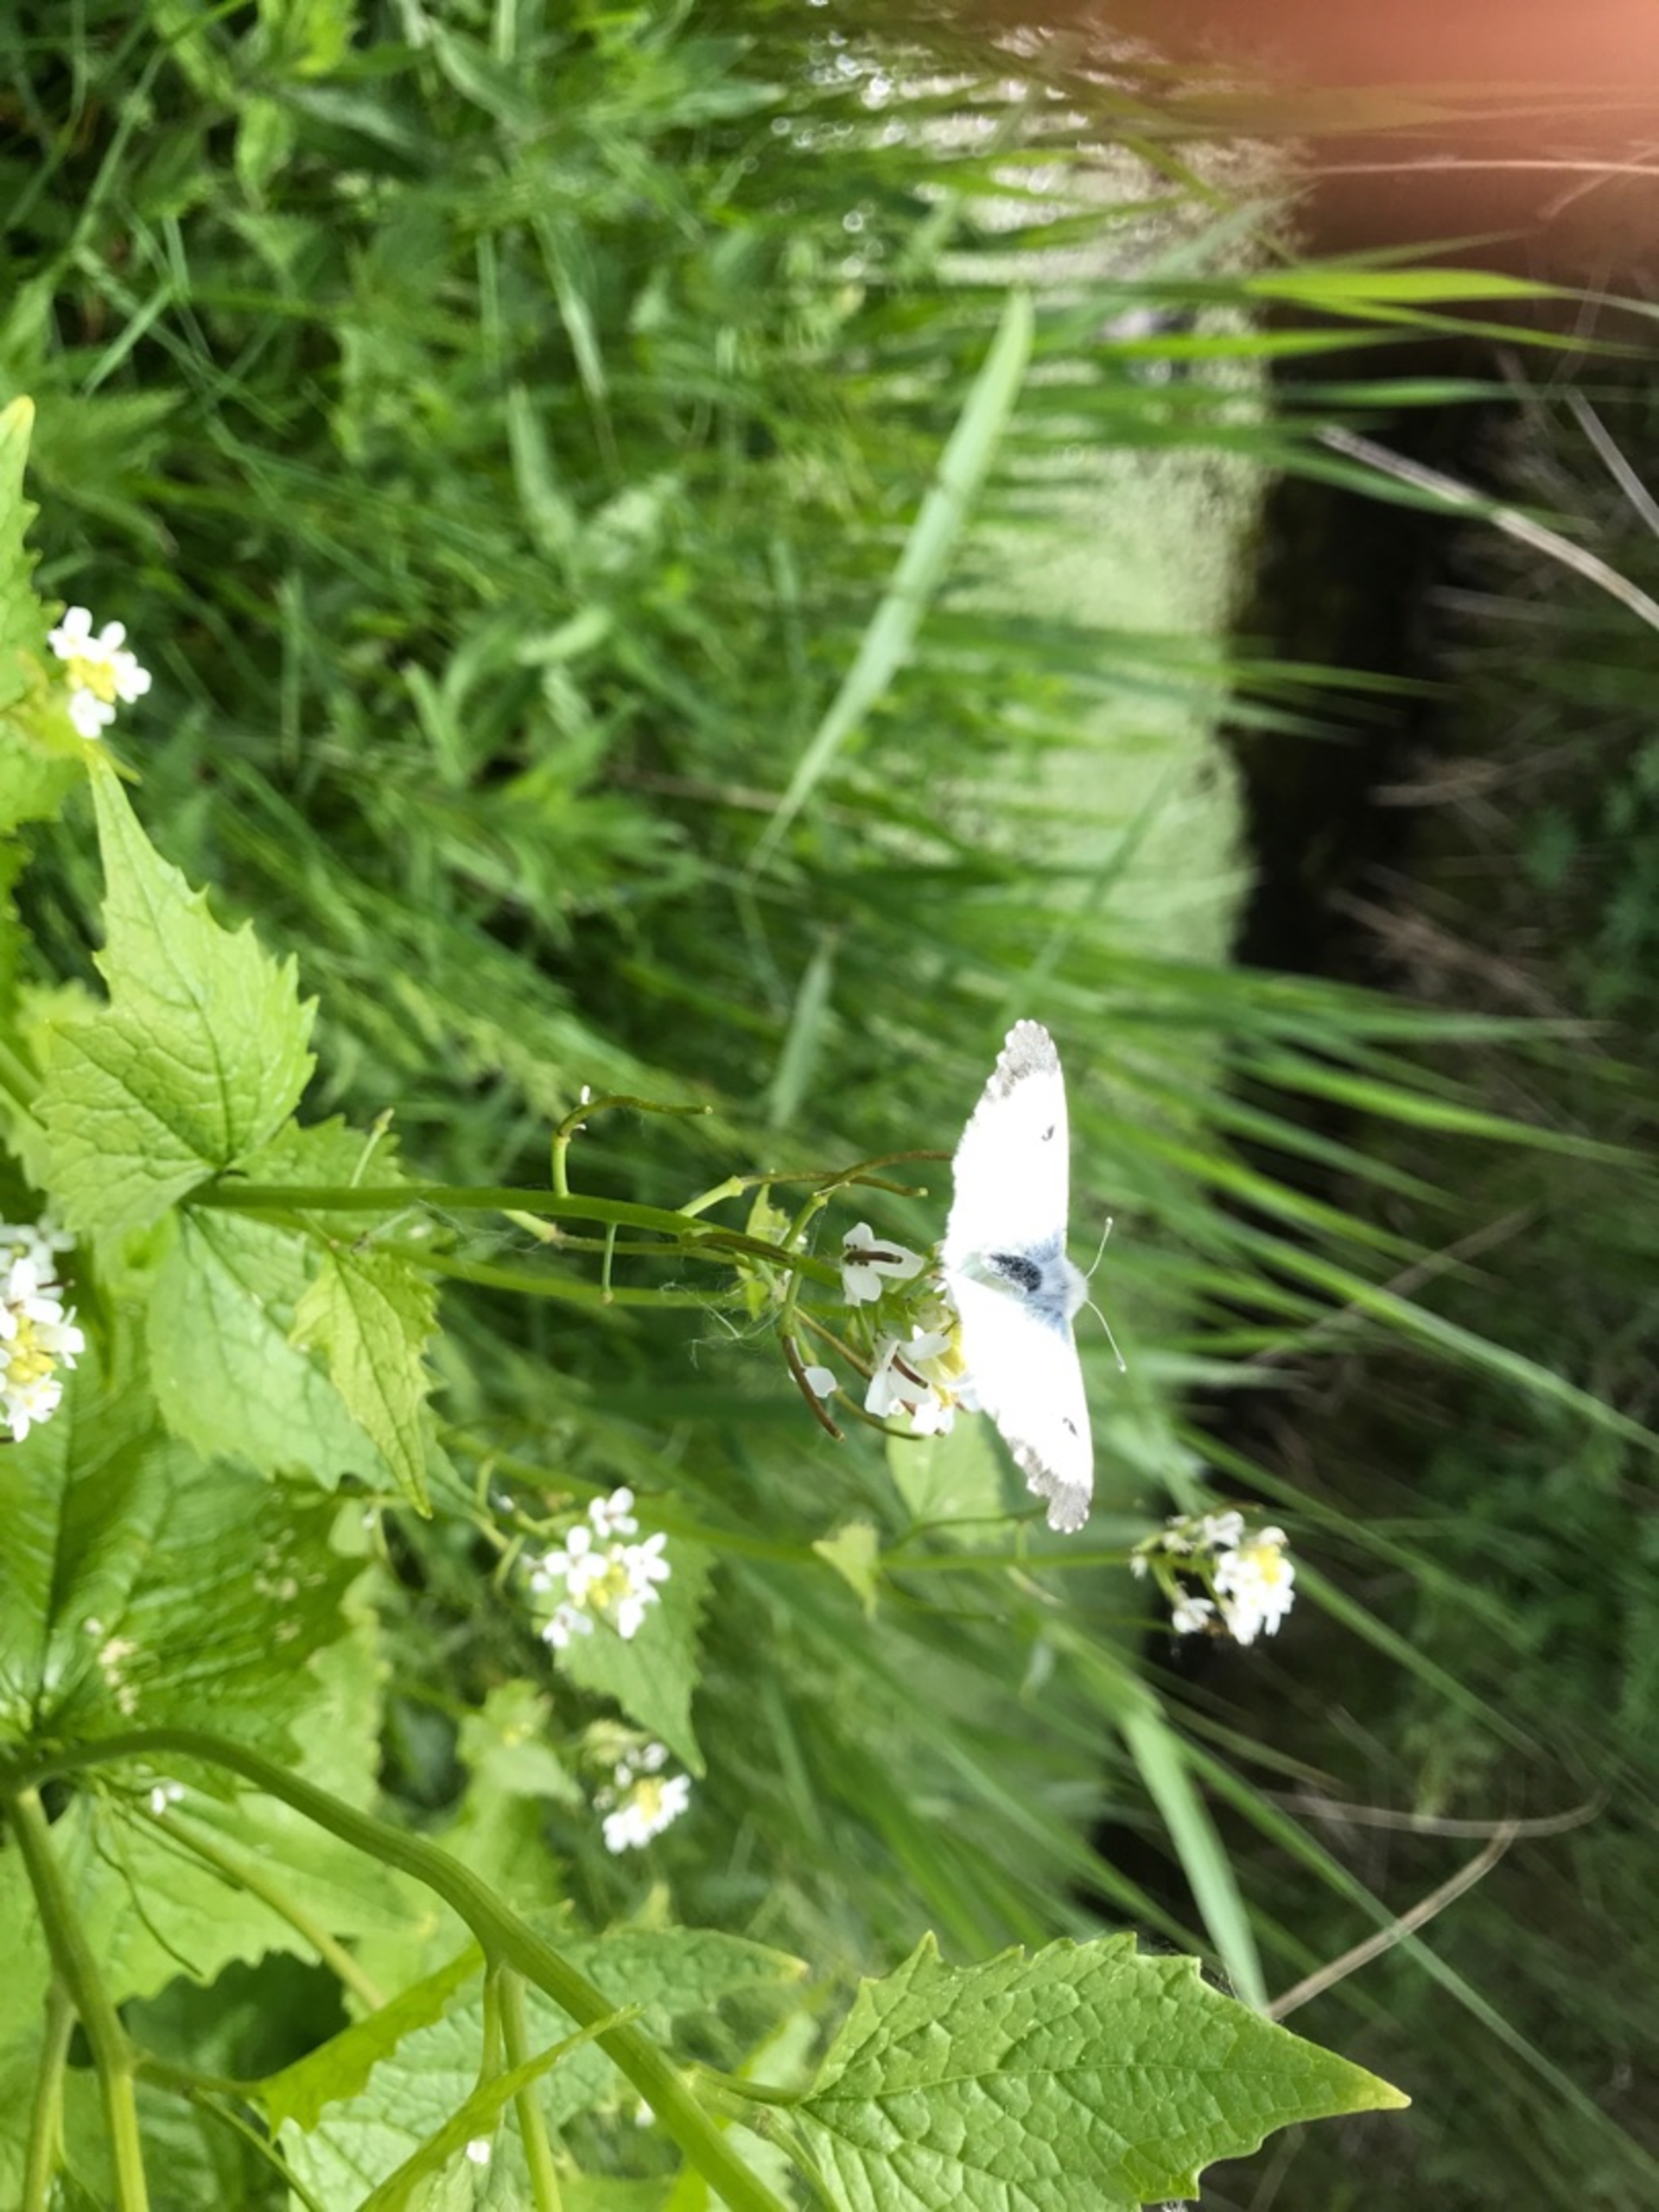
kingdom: Animalia
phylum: Arthropoda
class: Insecta
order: Lepidoptera
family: Pieridae
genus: Anthocharis
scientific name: Anthocharis cardamines
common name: Aurora
